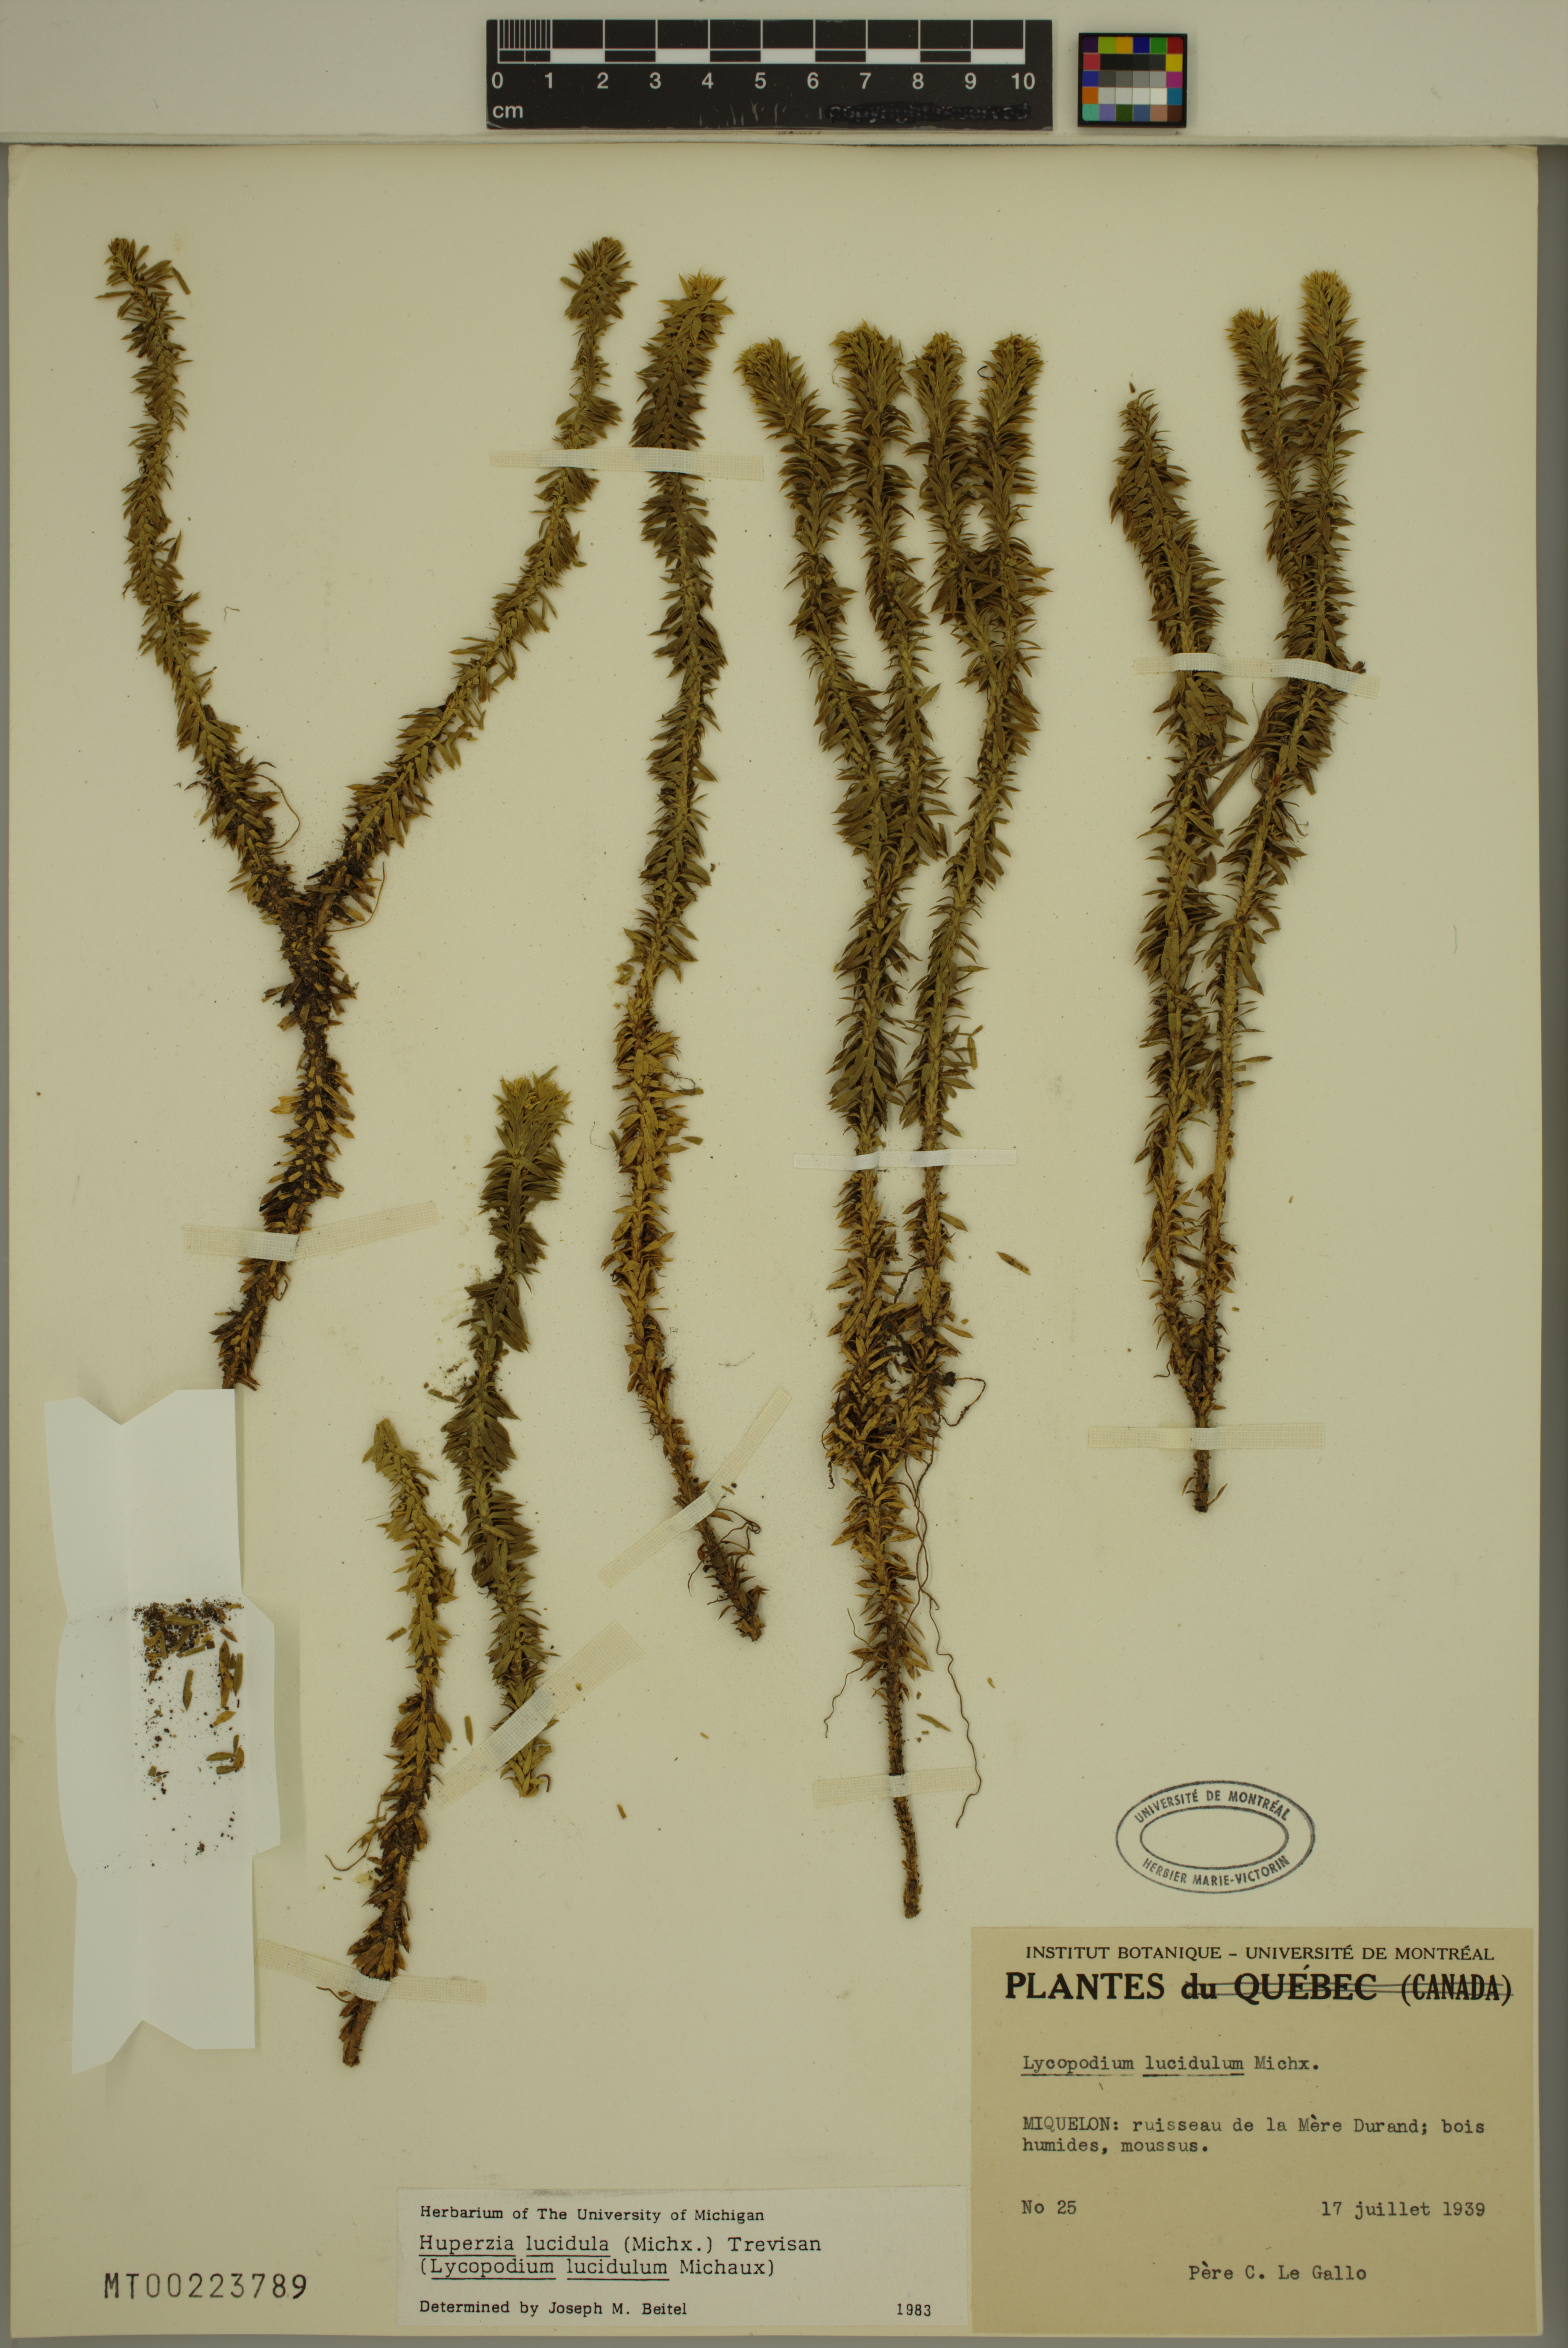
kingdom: Plantae
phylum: Tracheophyta
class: Lycopodiopsida
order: Lycopodiales
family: Lycopodiaceae
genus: Huperzia
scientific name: Huperzia lucidula
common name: Shining clubmoss
